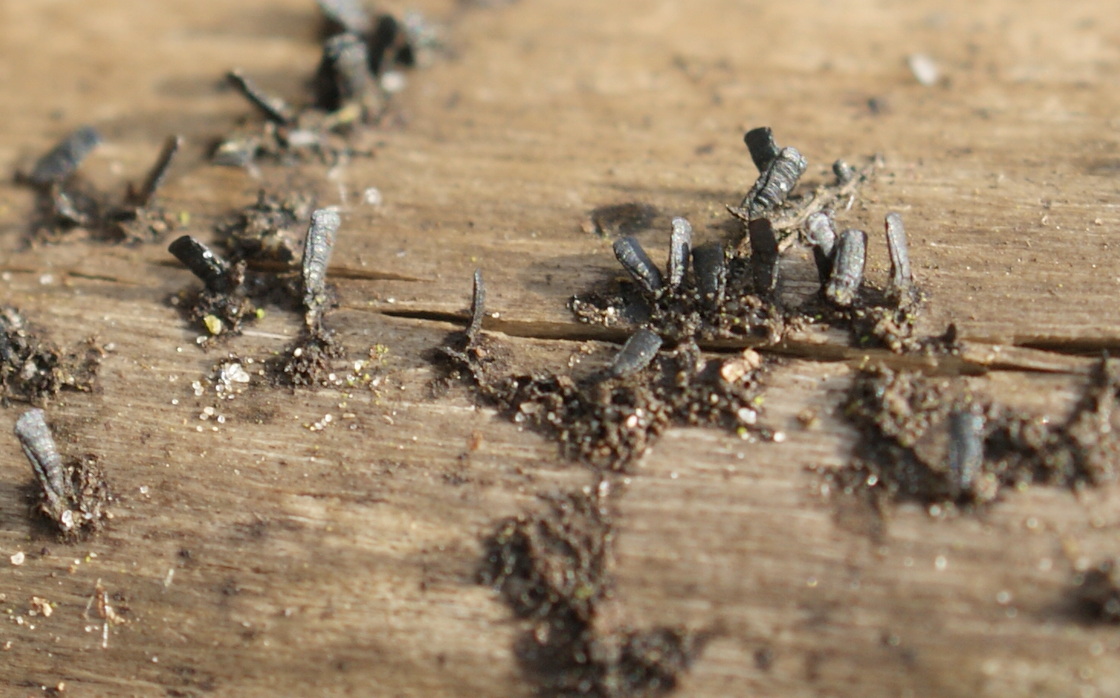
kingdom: Fungi
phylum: Ascomycota
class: Eurotiomycetes
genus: Glyphium
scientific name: Glyphium elatum
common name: kuløkse
